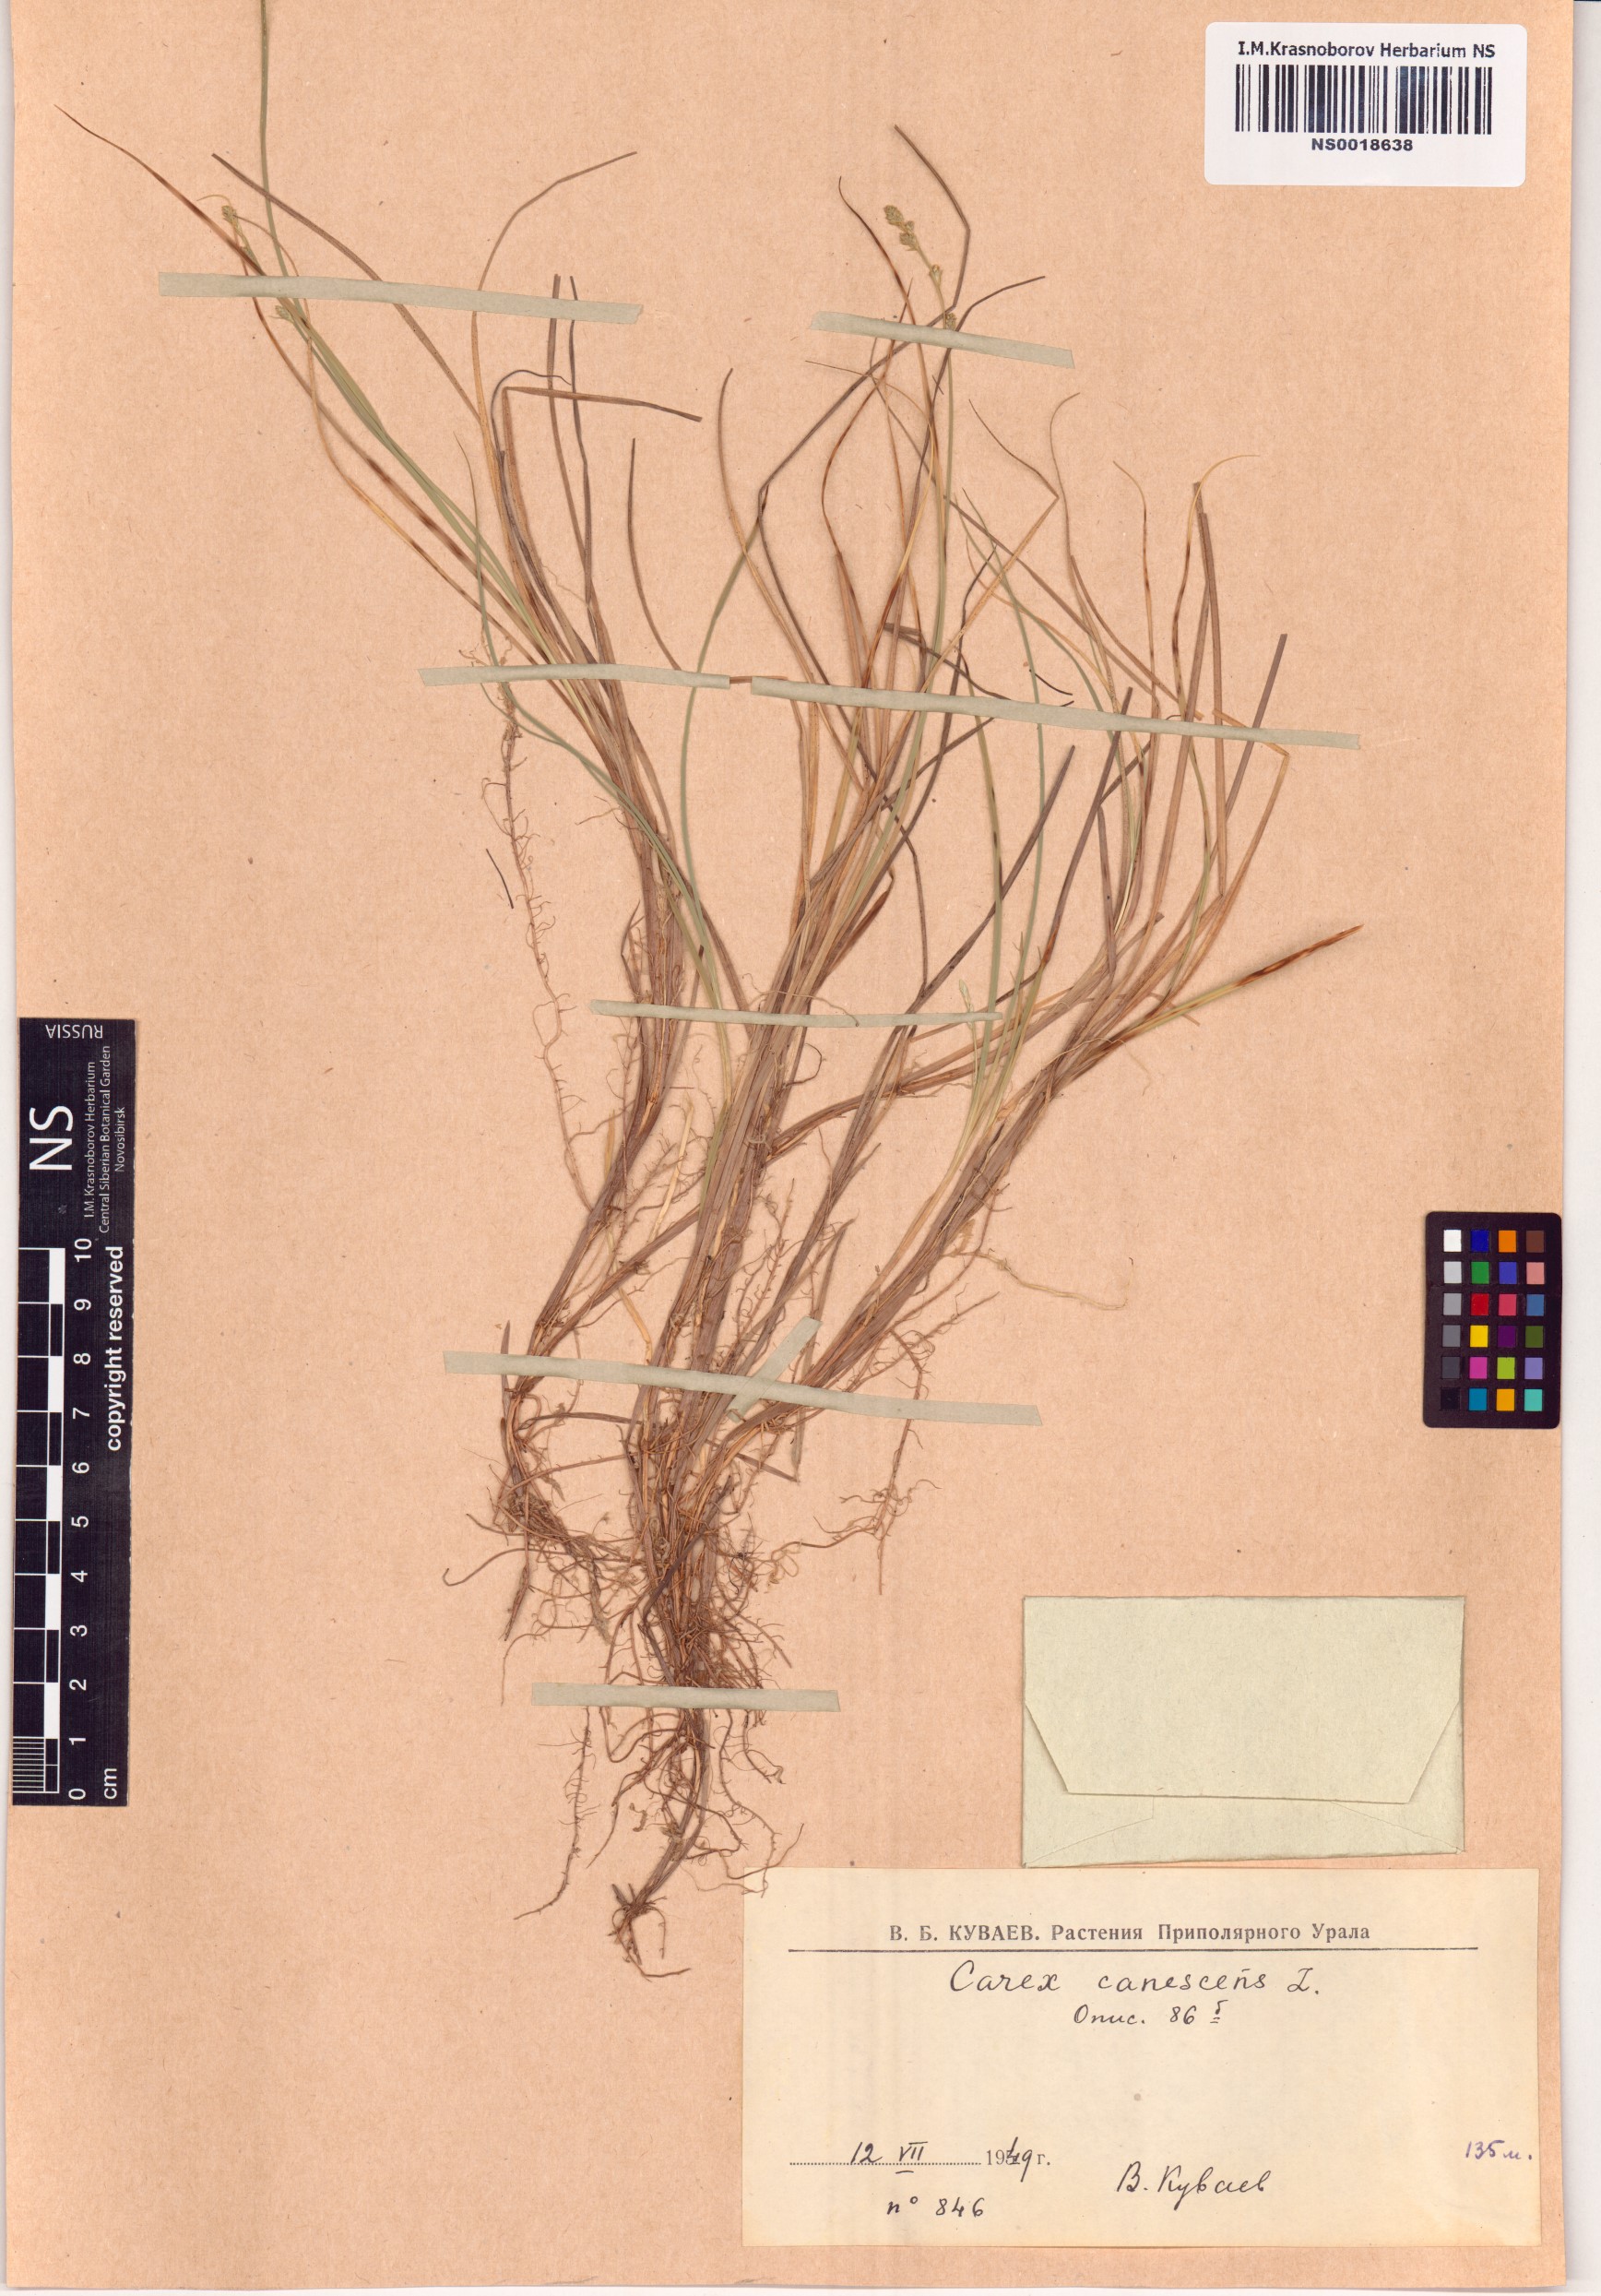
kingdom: Plantae
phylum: Tracheophyta
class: Liliopsida
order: Poales
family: Cyperaceae
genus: Carex
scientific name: Carex canescens
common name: White sedge
